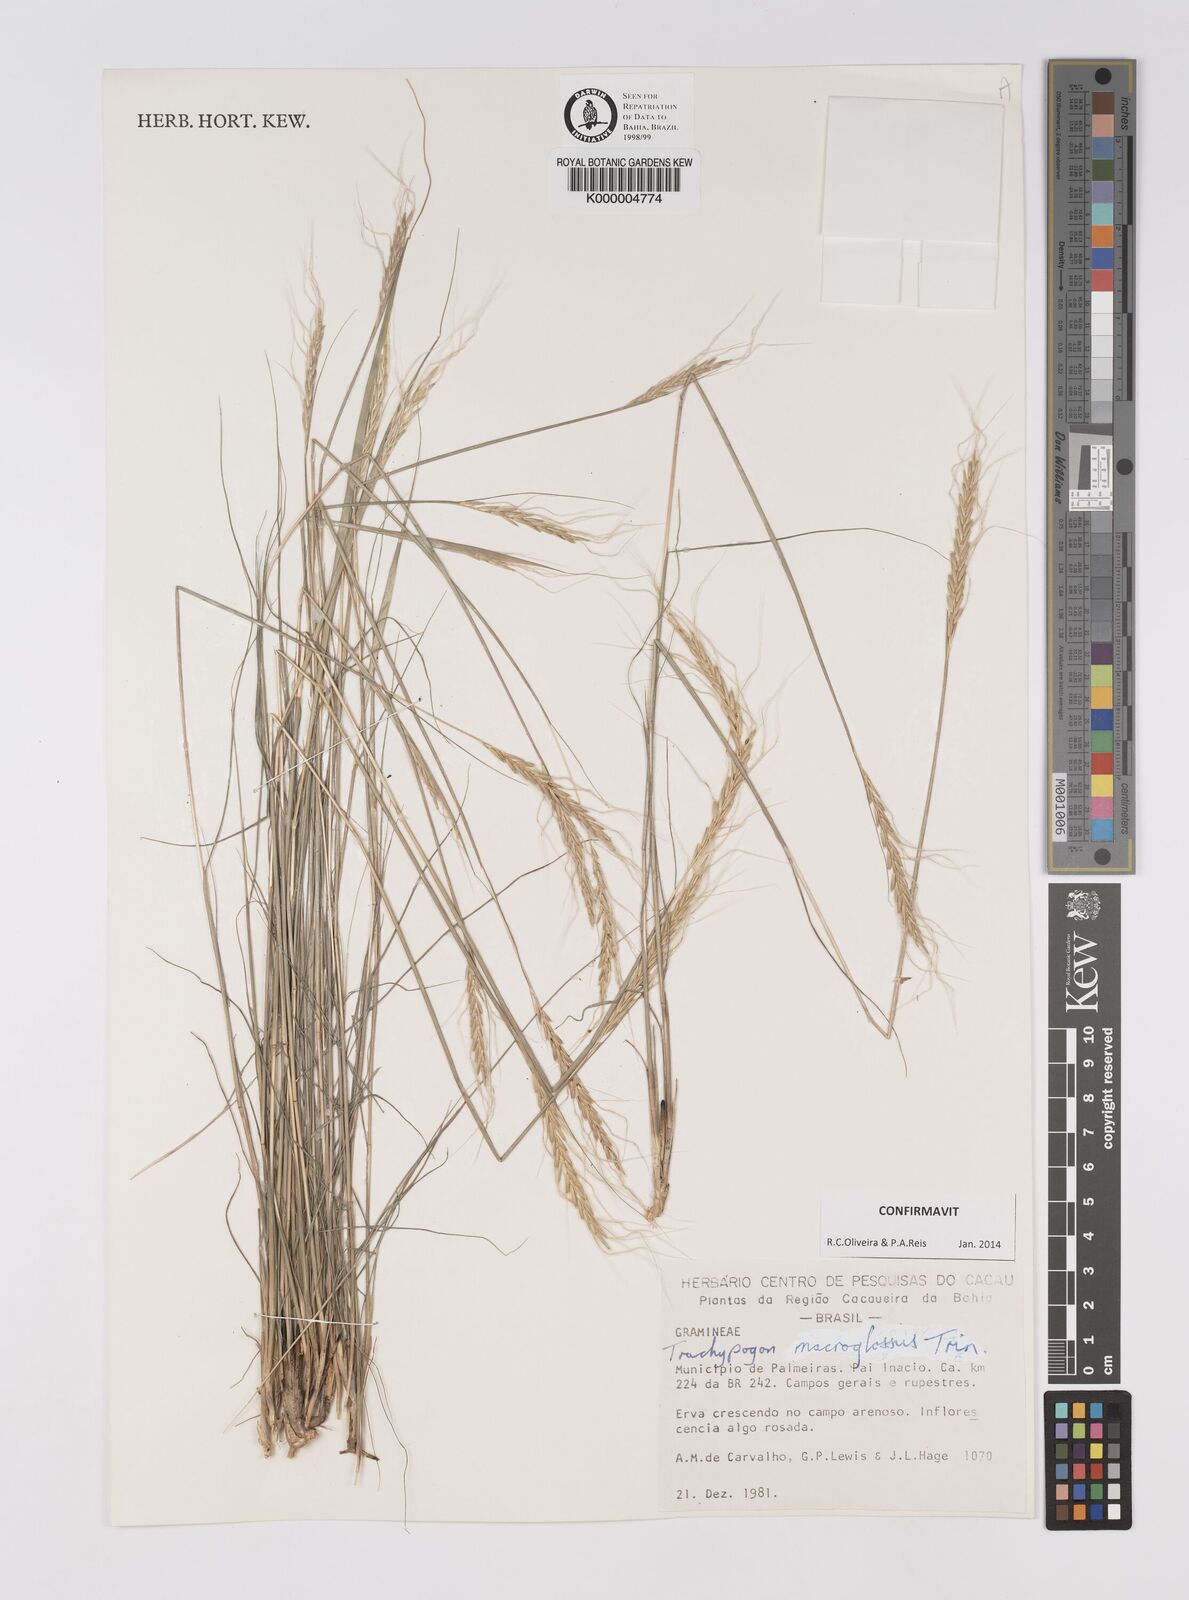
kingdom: Plantae
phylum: Tracheophyta
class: Liliopsida
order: Poales
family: Poaceae
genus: Trachypogon
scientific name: Trachypogon macroglossus
